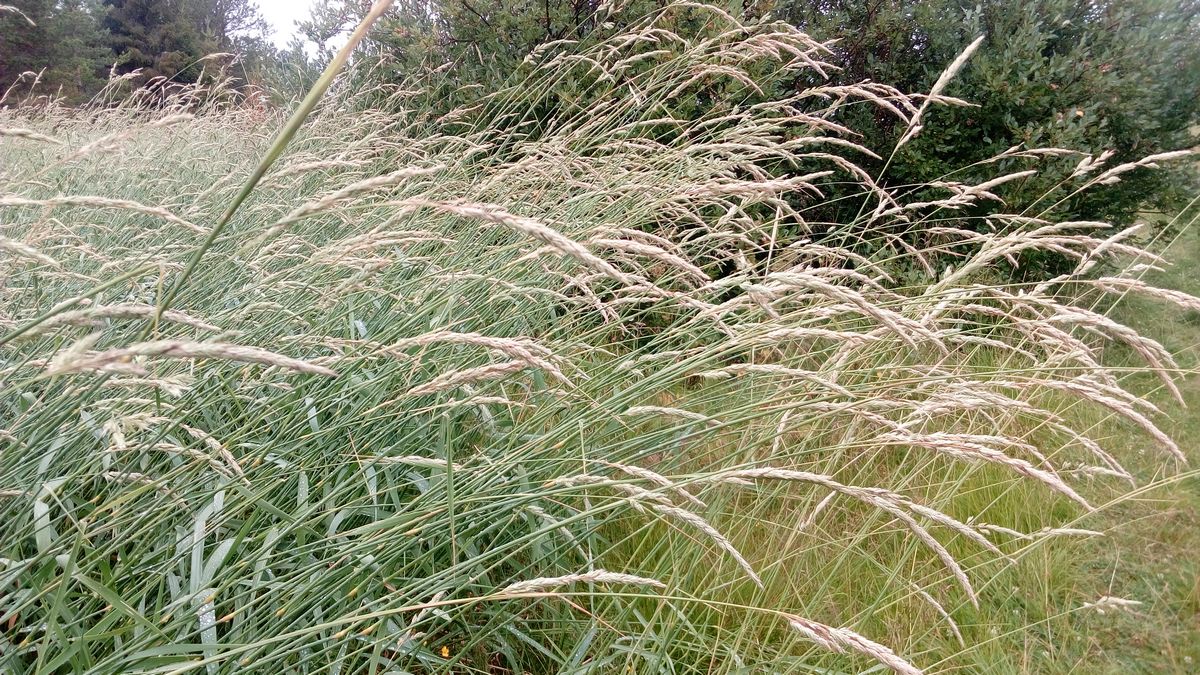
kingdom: Plantae
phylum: Tracheophyta
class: Liliopsida
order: Poales
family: Poaceae
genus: Phalaris
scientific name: Phalaris arundinacea
